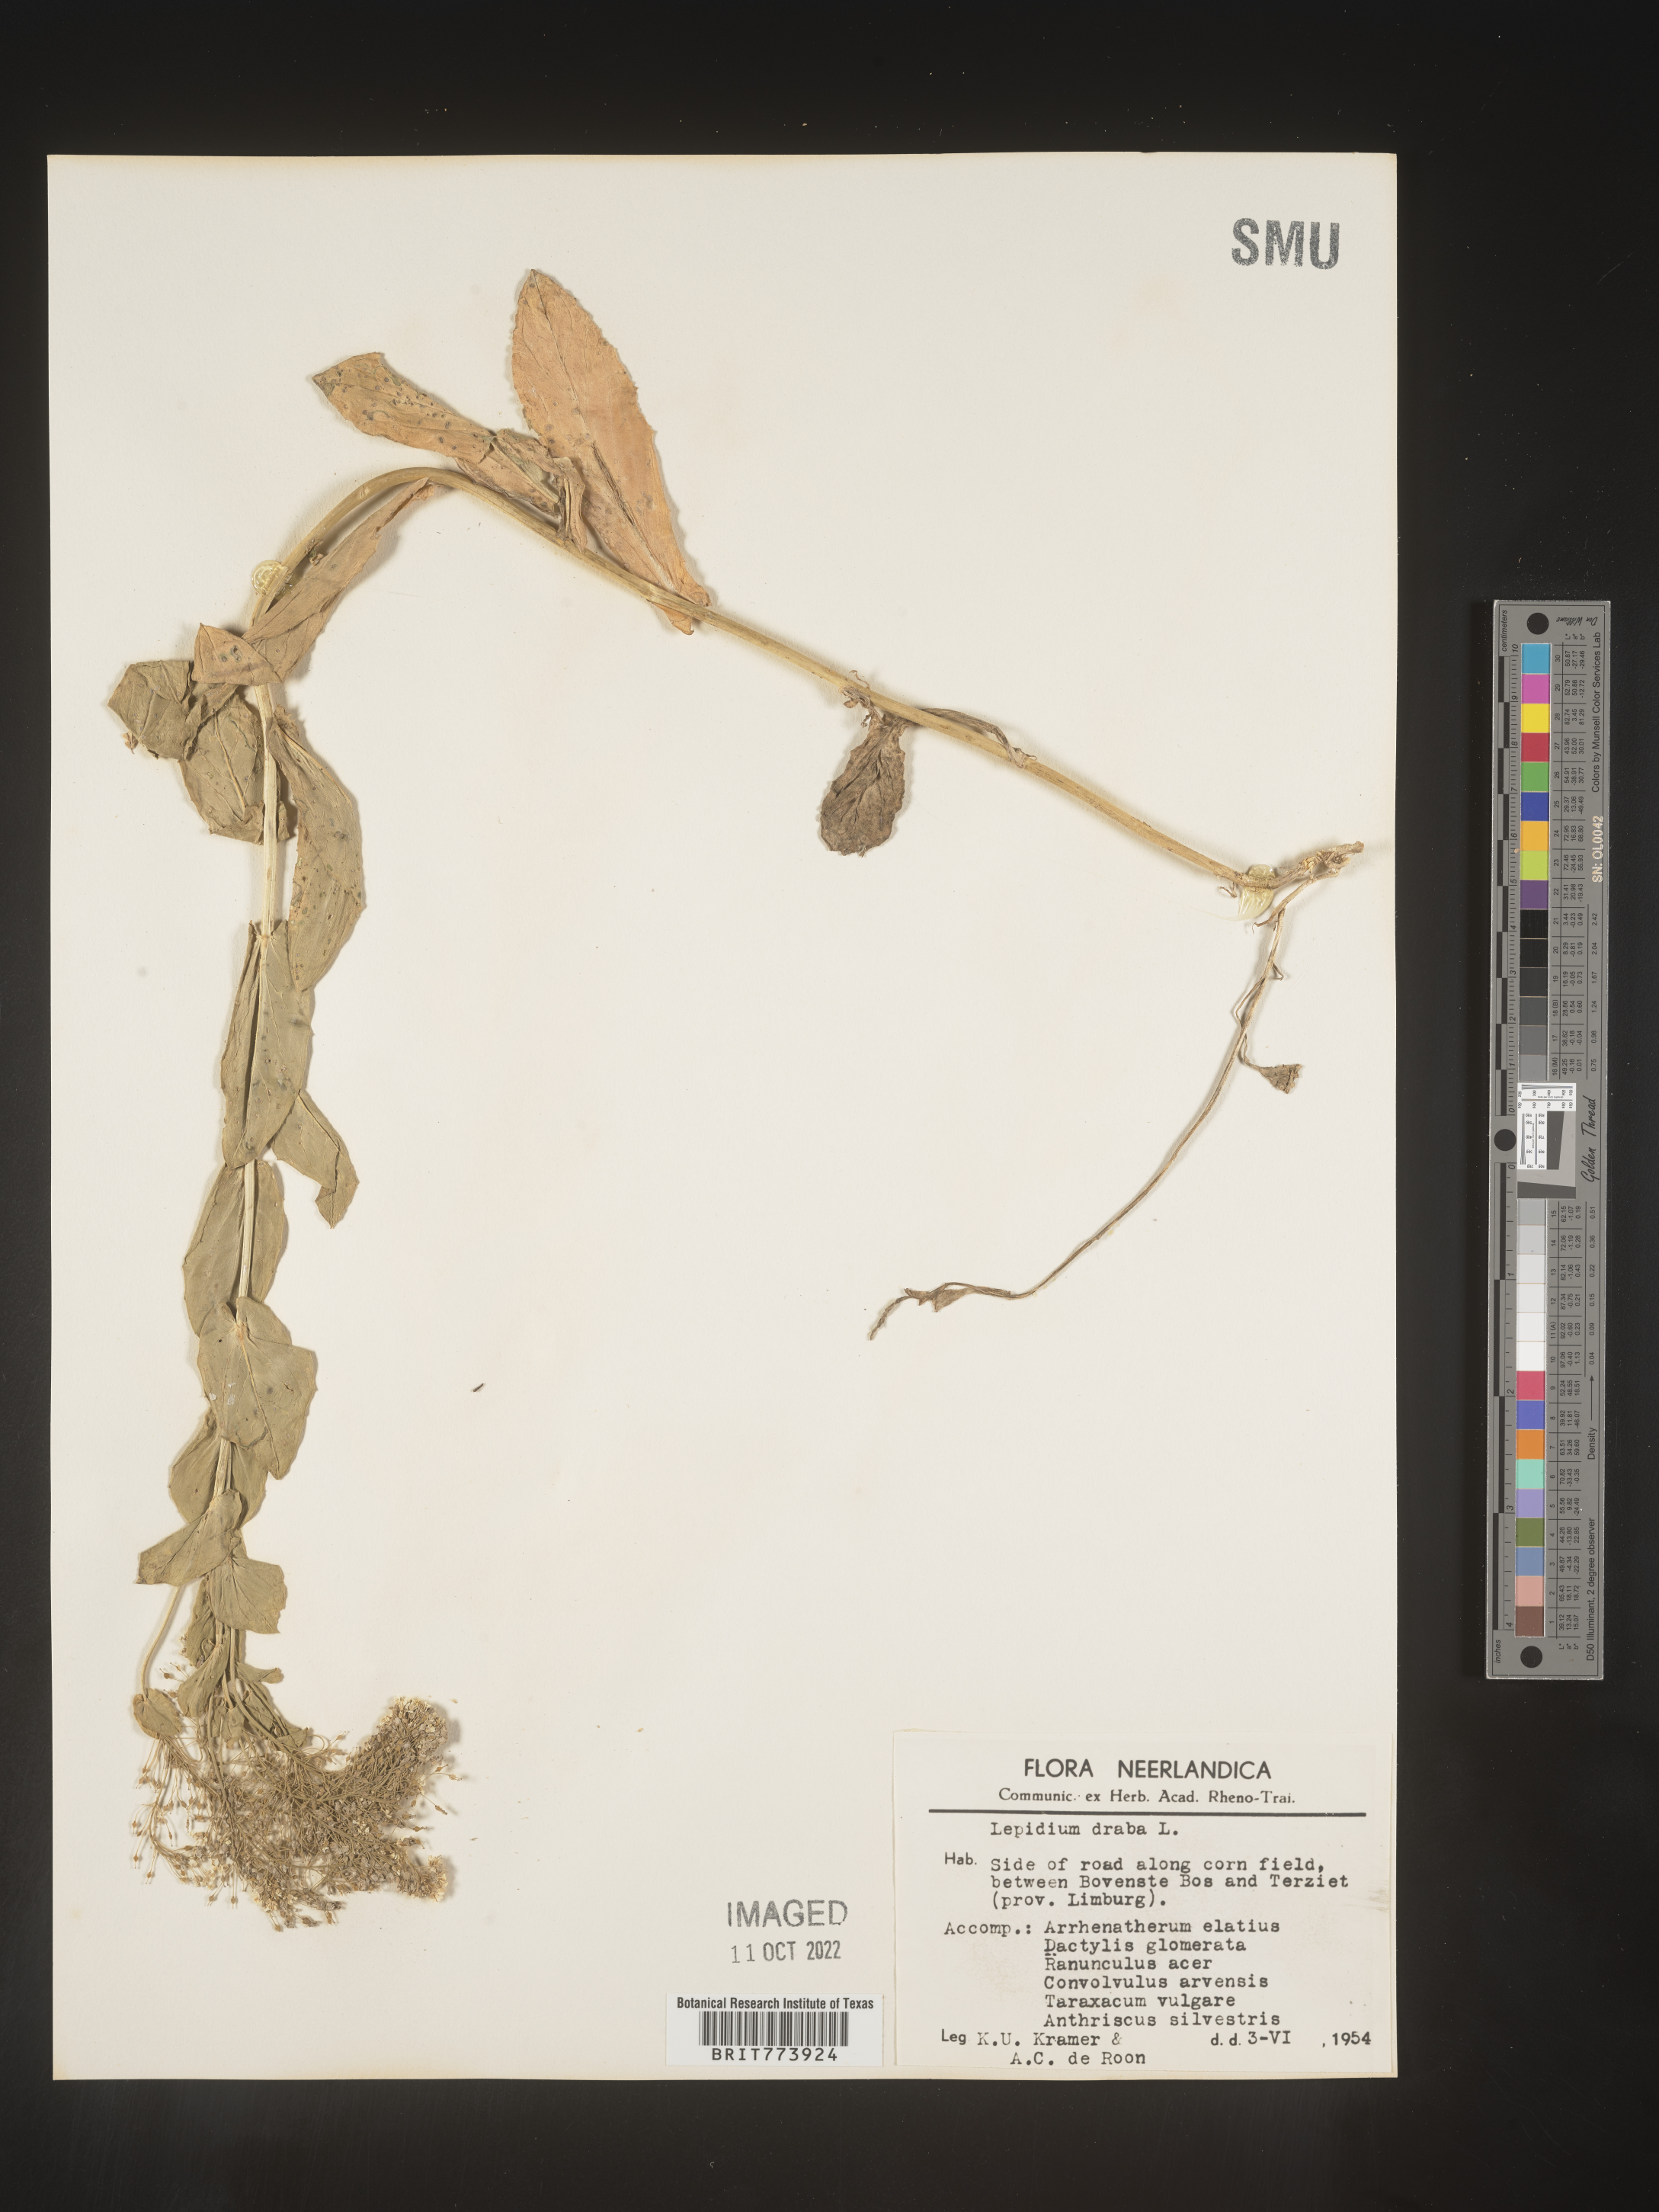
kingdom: Plantae
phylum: Tracheophyta
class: Magnoliopsida
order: Brassicales
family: Brassicaceae
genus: Lepidium
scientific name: Lepidium
